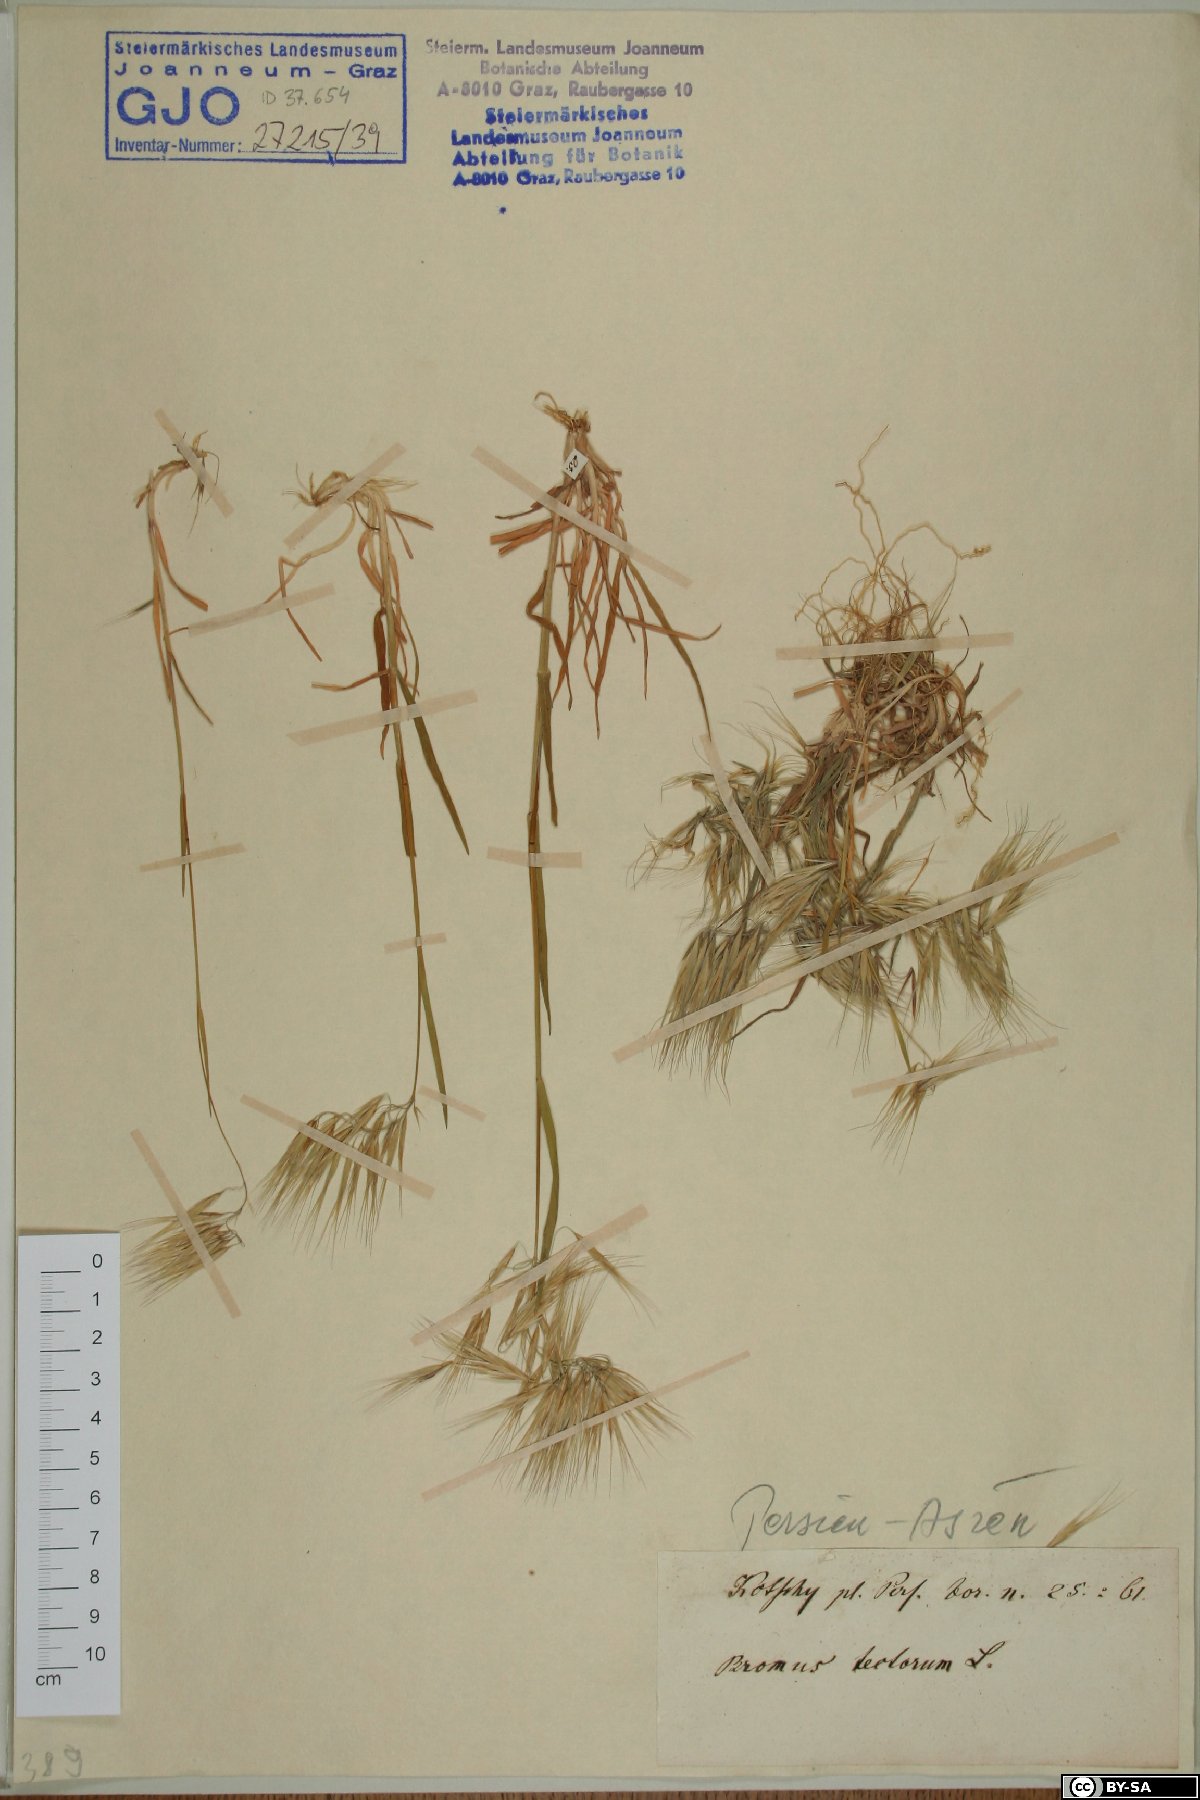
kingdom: Plantae
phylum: Tracheophyta
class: Liliopsida
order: Poales
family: Poaceae
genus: Bromus
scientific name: Bromus tectorum
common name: Cheatgrass
